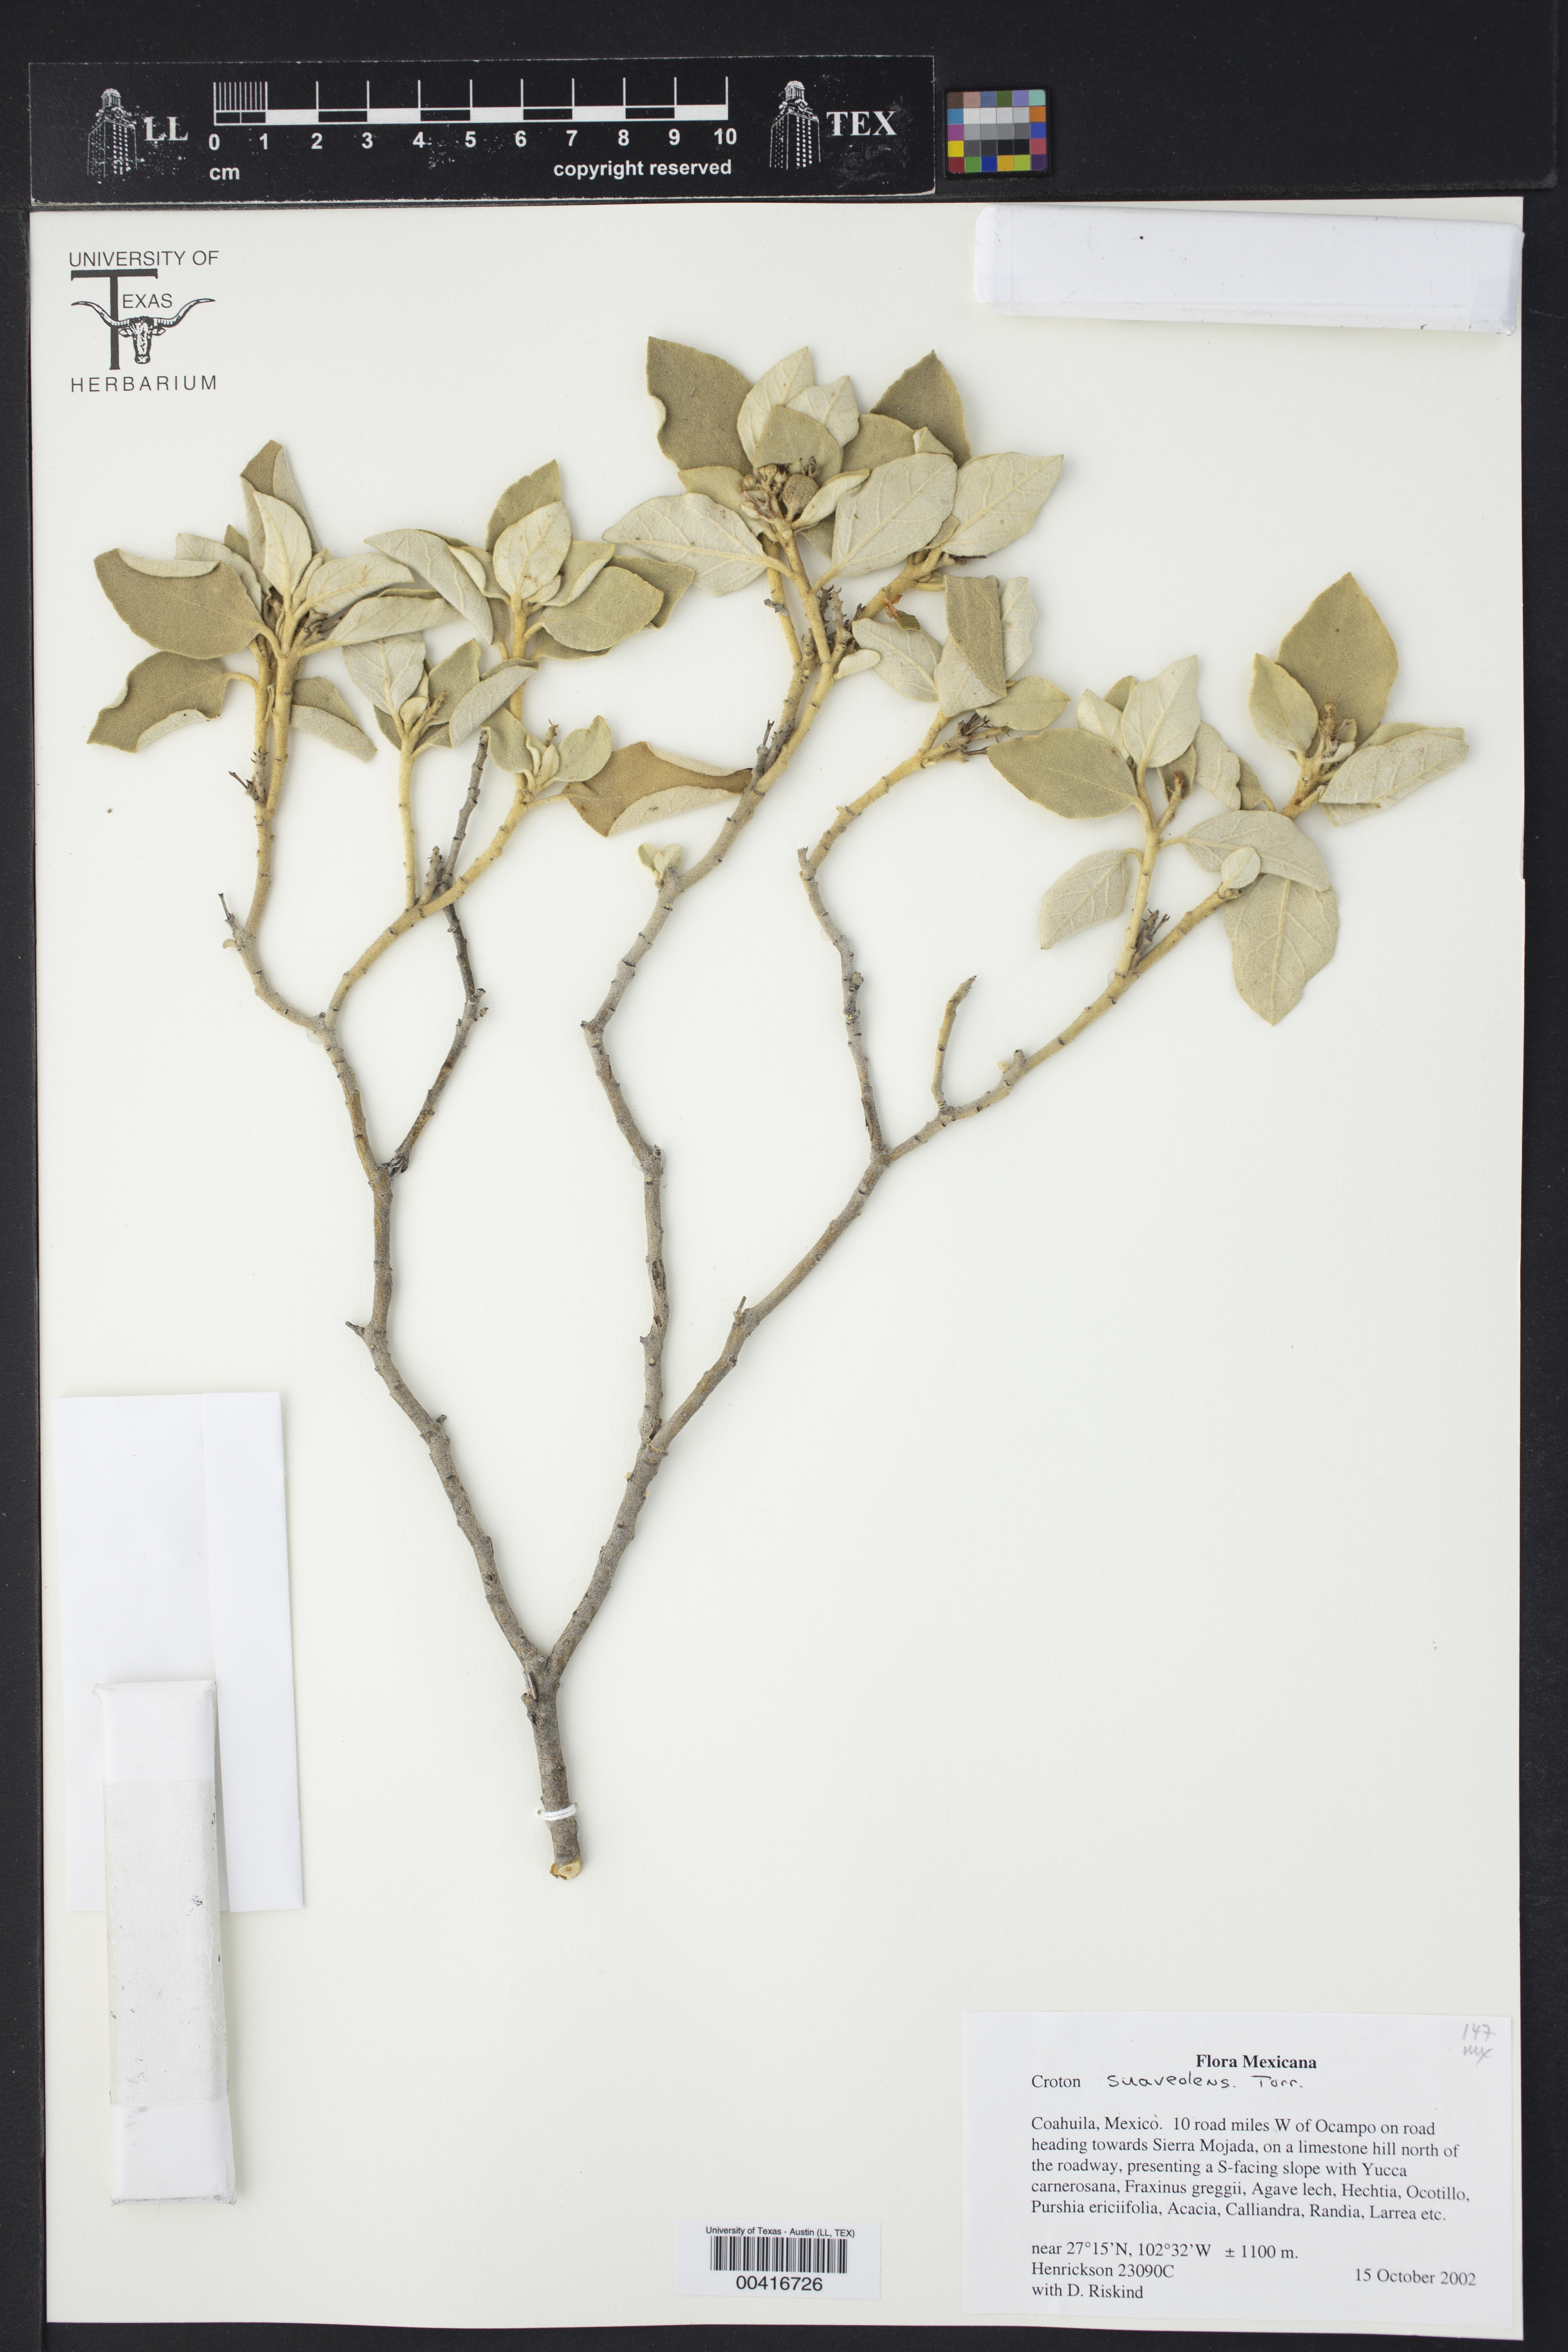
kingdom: Plantae
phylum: Tracheophyta
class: Magnoliopsida
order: Malpighiales
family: Euphorbiaceae
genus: Croton
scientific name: Croton suaveolens
